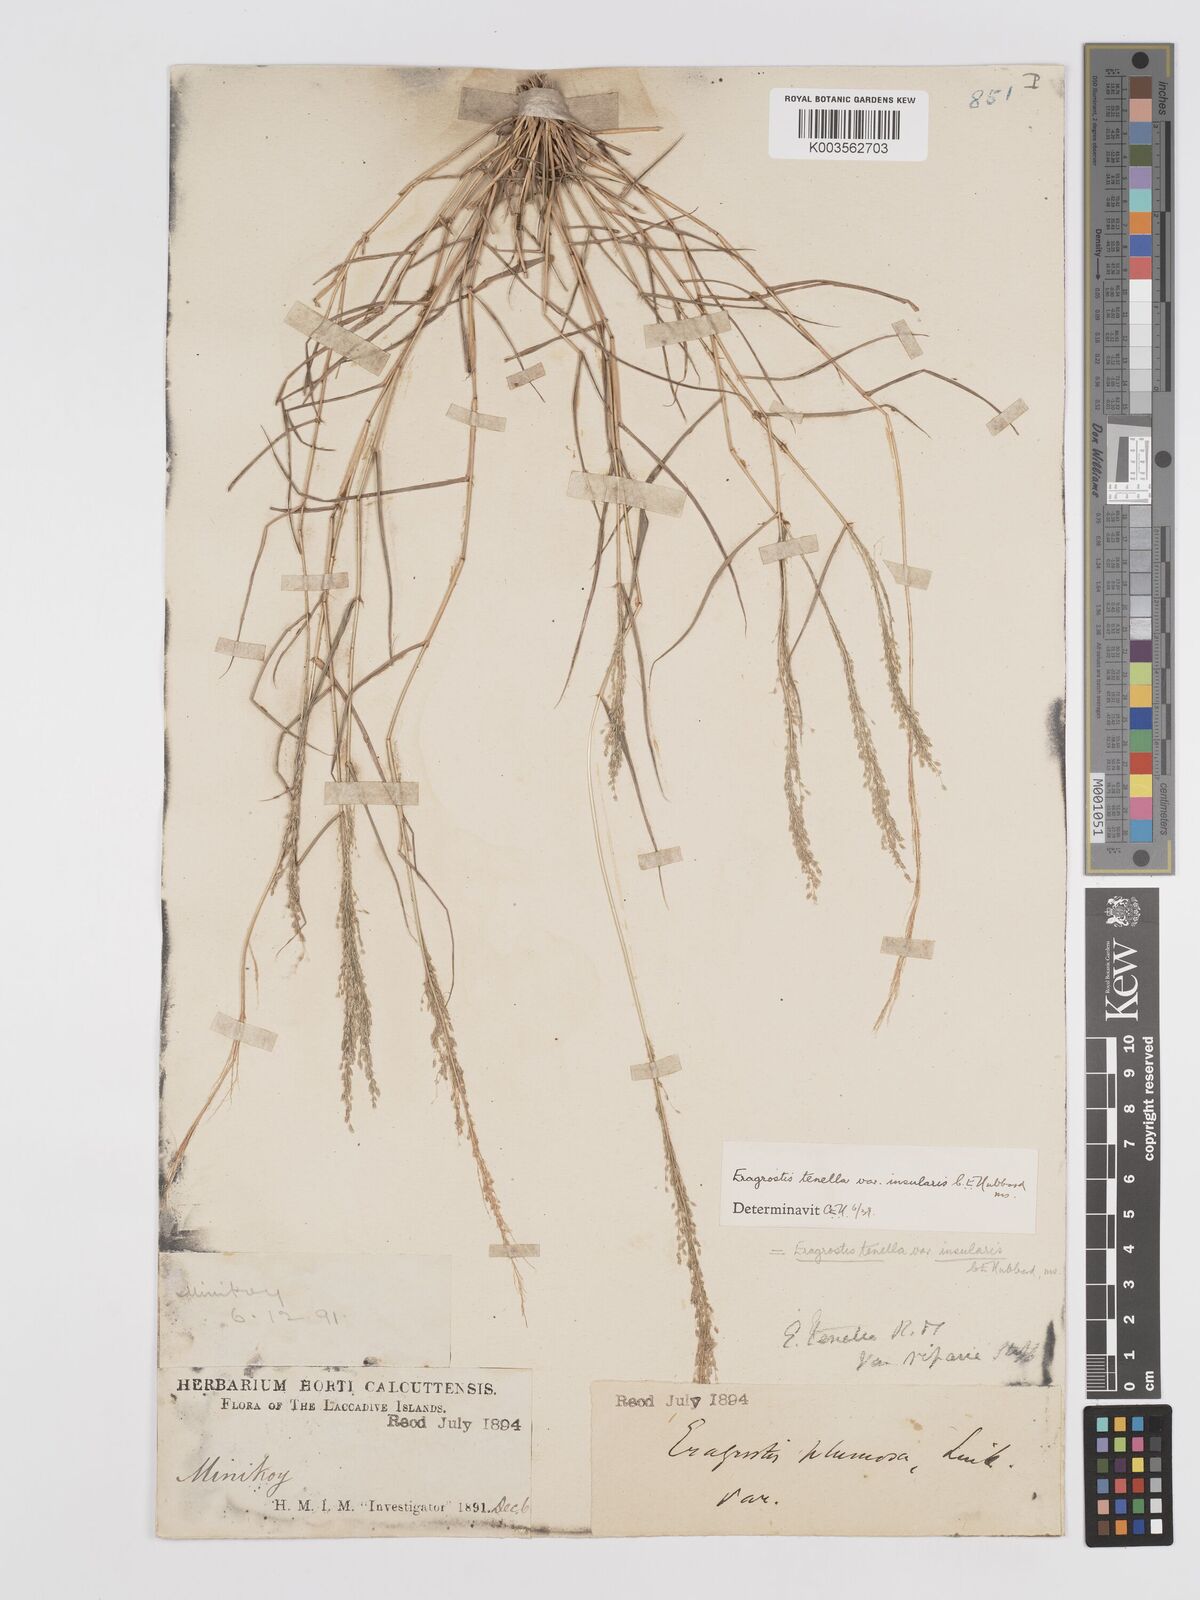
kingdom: Plantae
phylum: Tracheophyta
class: Liliopsida
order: Poales
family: Poaceae
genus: Eragrostis
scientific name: Eragrostis tenella
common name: Japanese lovegrass
